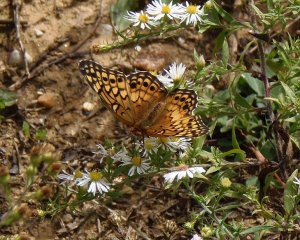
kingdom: Animalia
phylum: Arthropoda
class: Insecta
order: Lepidoptera
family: Nymphalidae
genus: Euptoieta
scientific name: Euptoieta claudia
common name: Variegated Fritillary
